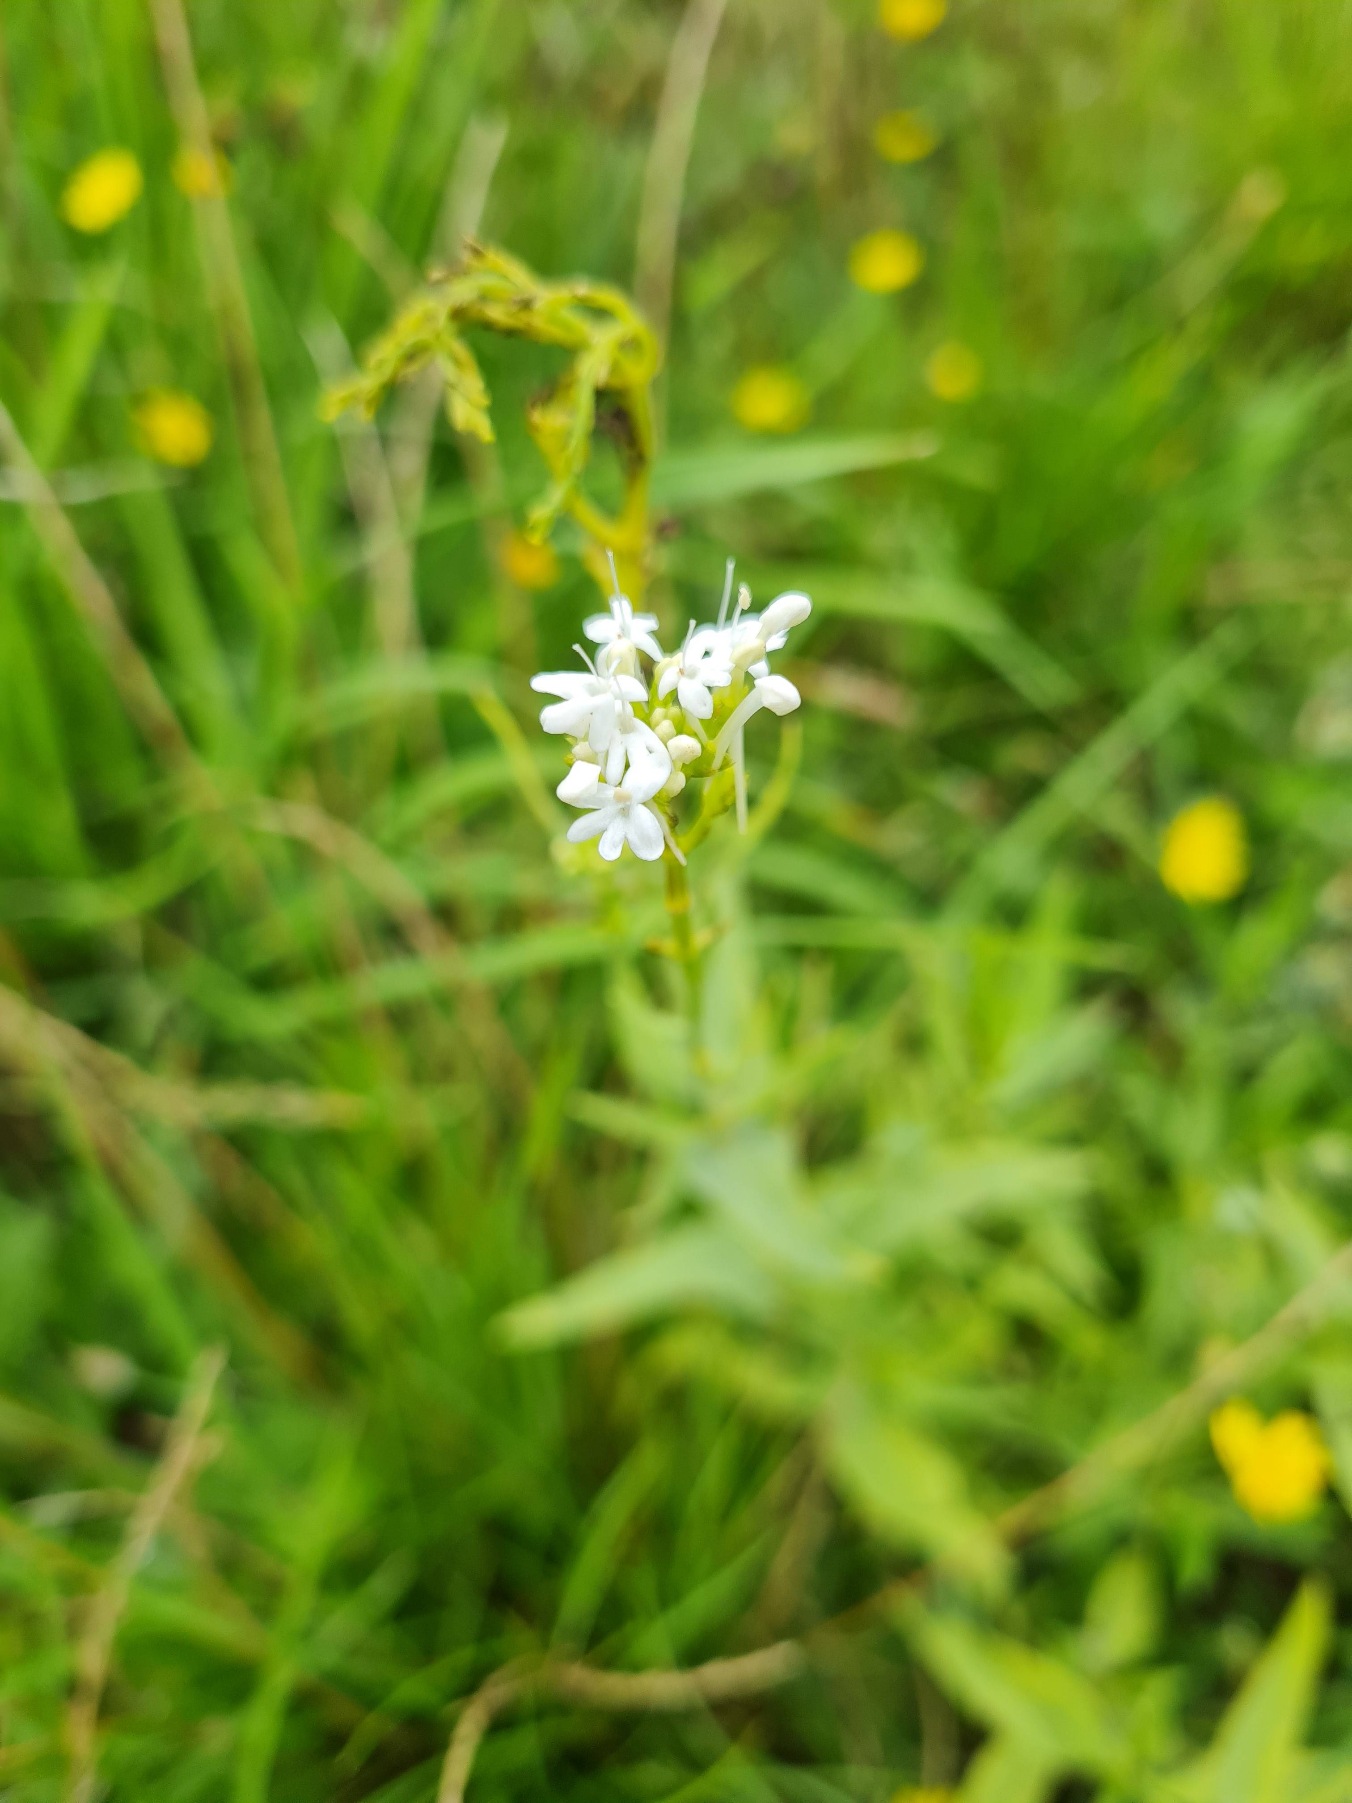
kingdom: Plantae
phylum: Tracheophyta
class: Magnoliopsida
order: Dipsacales
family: Caprifoliaceae
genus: Centranthus
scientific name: Centranthus ruber
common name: Sporebaldrian
